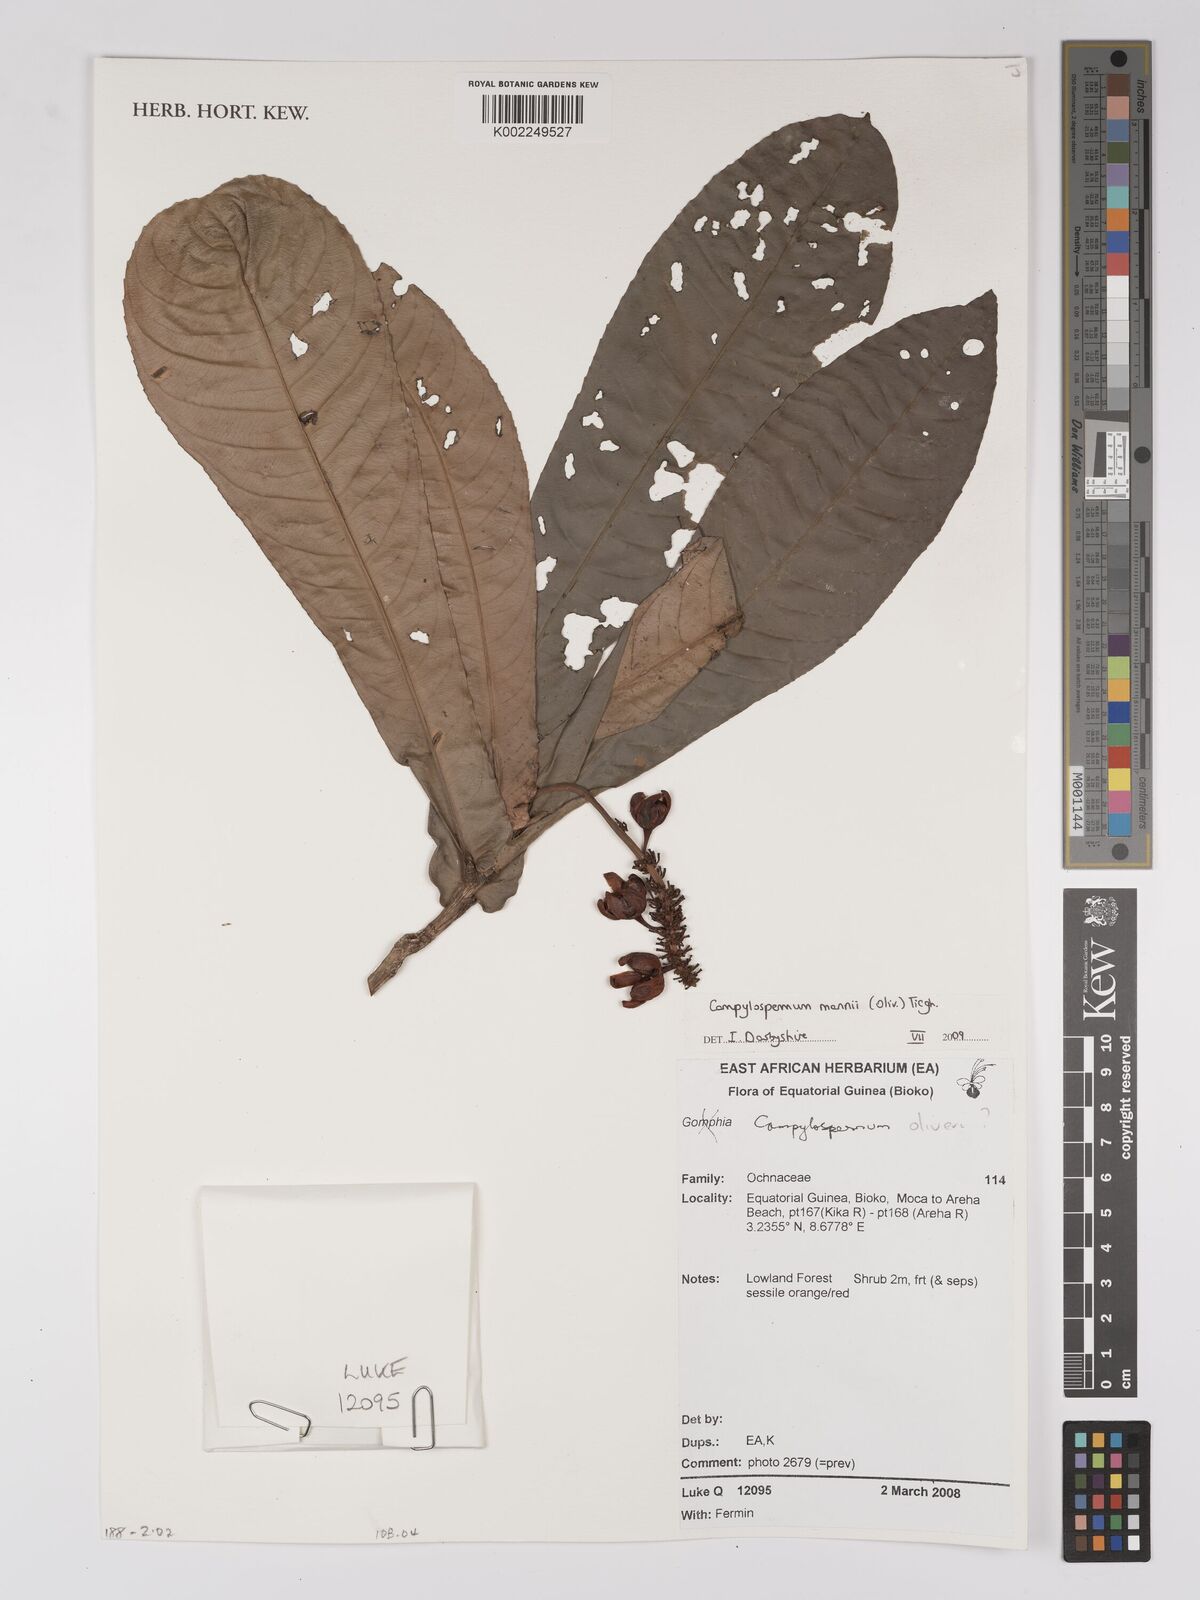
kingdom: Plantae
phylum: Tracheophyta
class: Magnoliopsida
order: Malpighiales
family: Ochnaceae
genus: Campylospermum
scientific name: Campylospermum mannii
